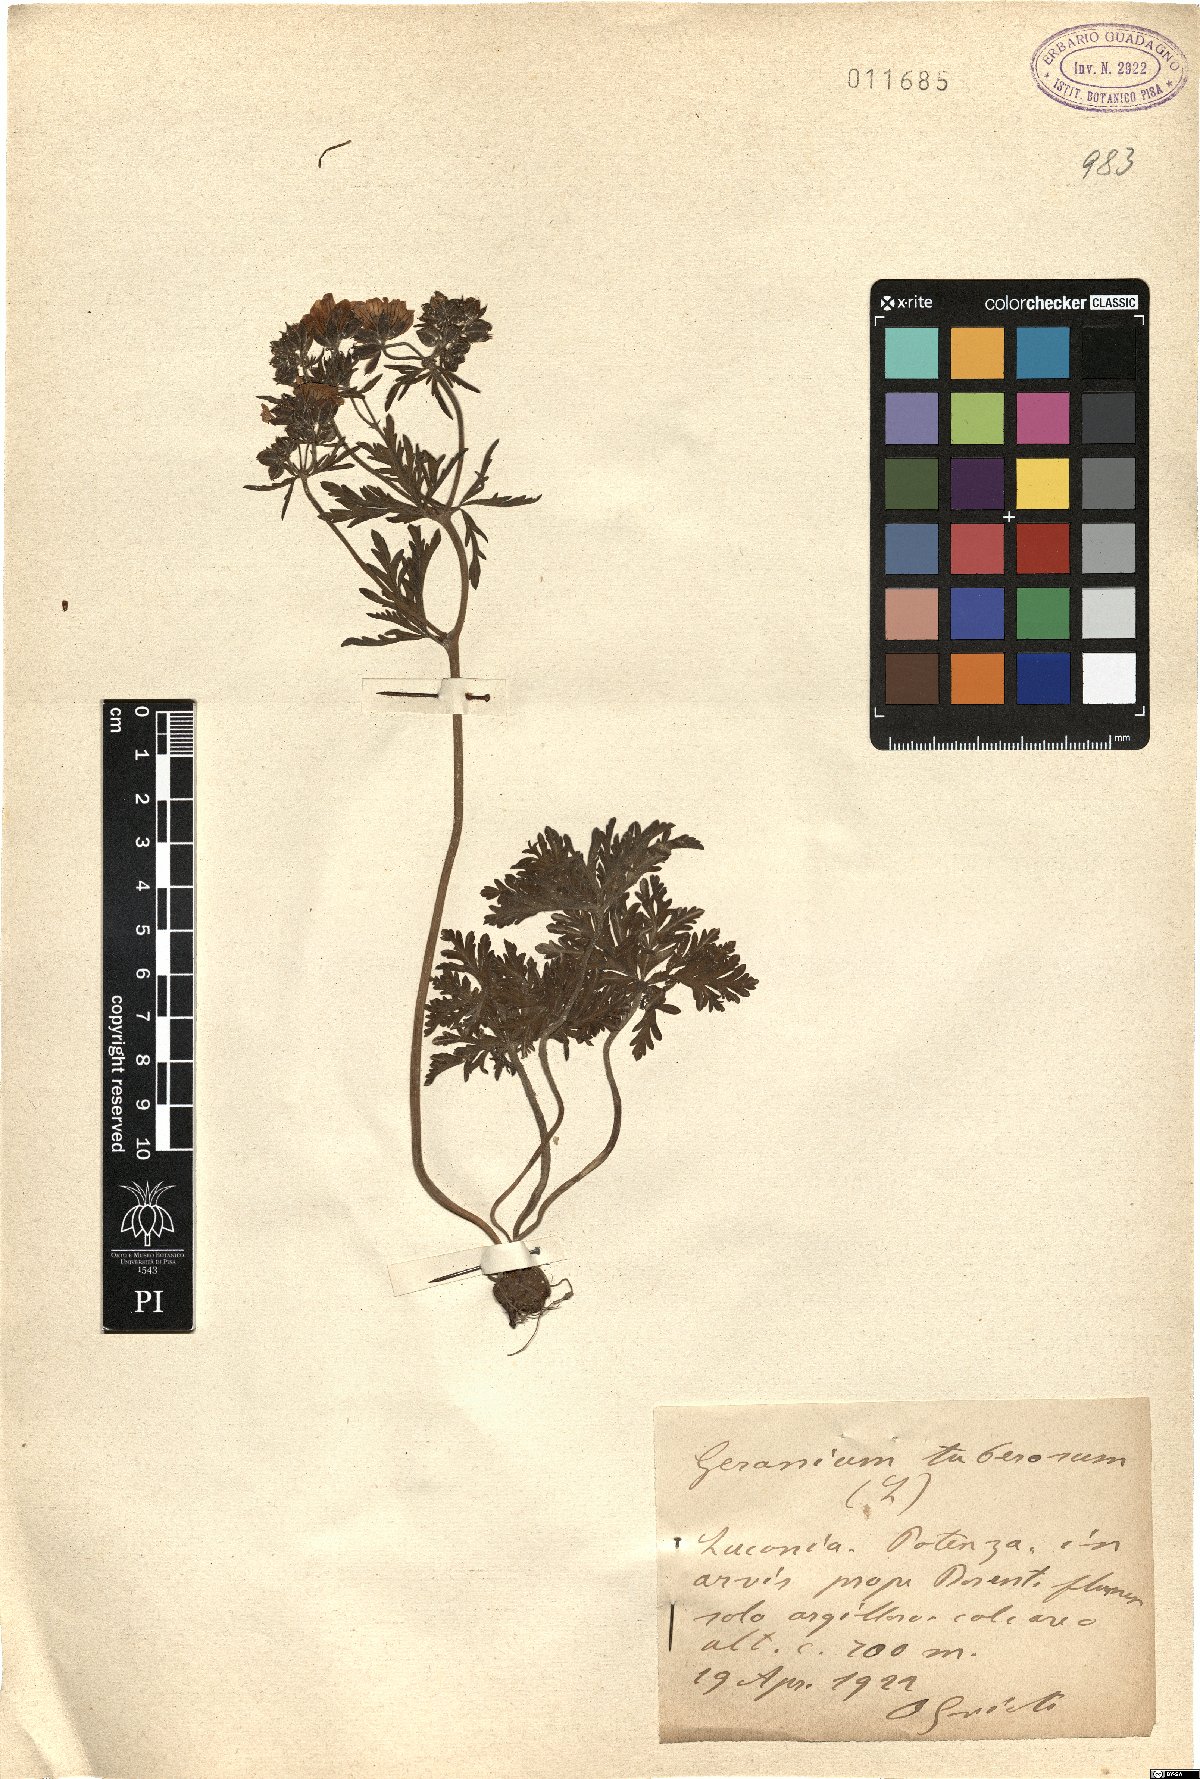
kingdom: Plantae
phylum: Tracheophyta
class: Magnoliopsida
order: Geraniales
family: Geraniaceae
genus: Geranium
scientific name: Geranium tuberosum
